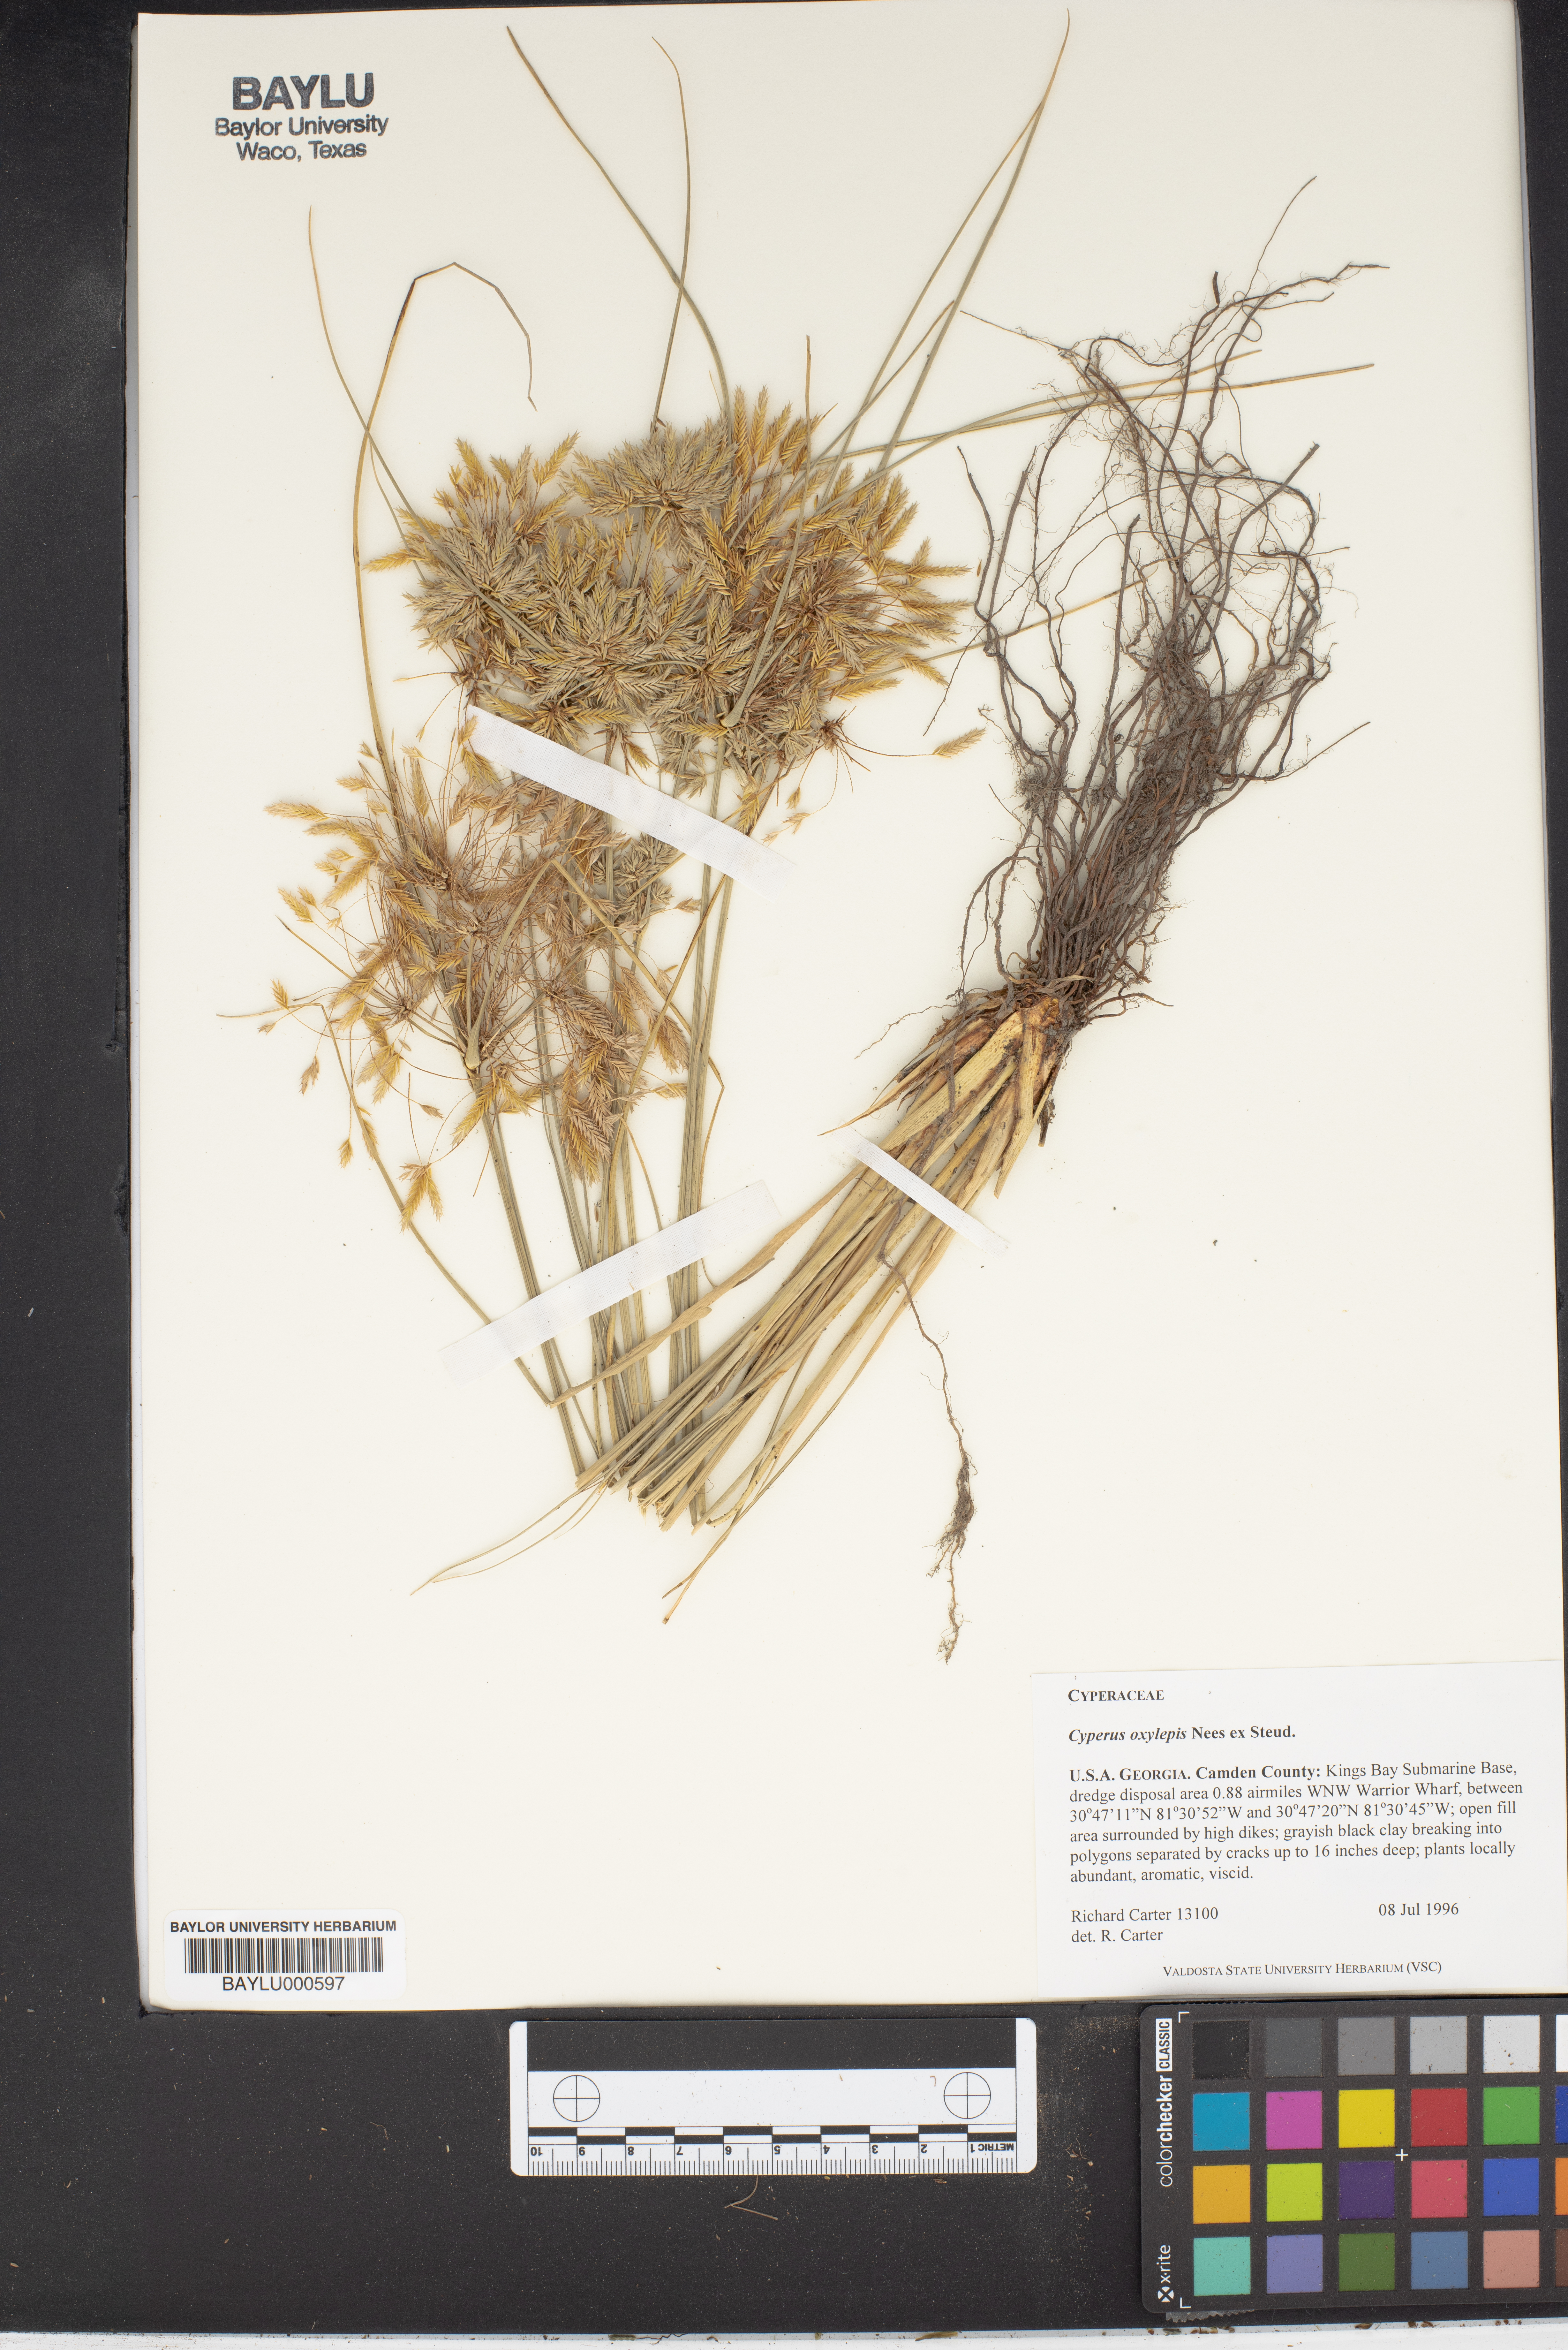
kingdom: Plantae
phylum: Tracheophyta
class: Liliopsida
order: Poales
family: Cyperaceae
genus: Cyperus
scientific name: Cyperus oxylepis
